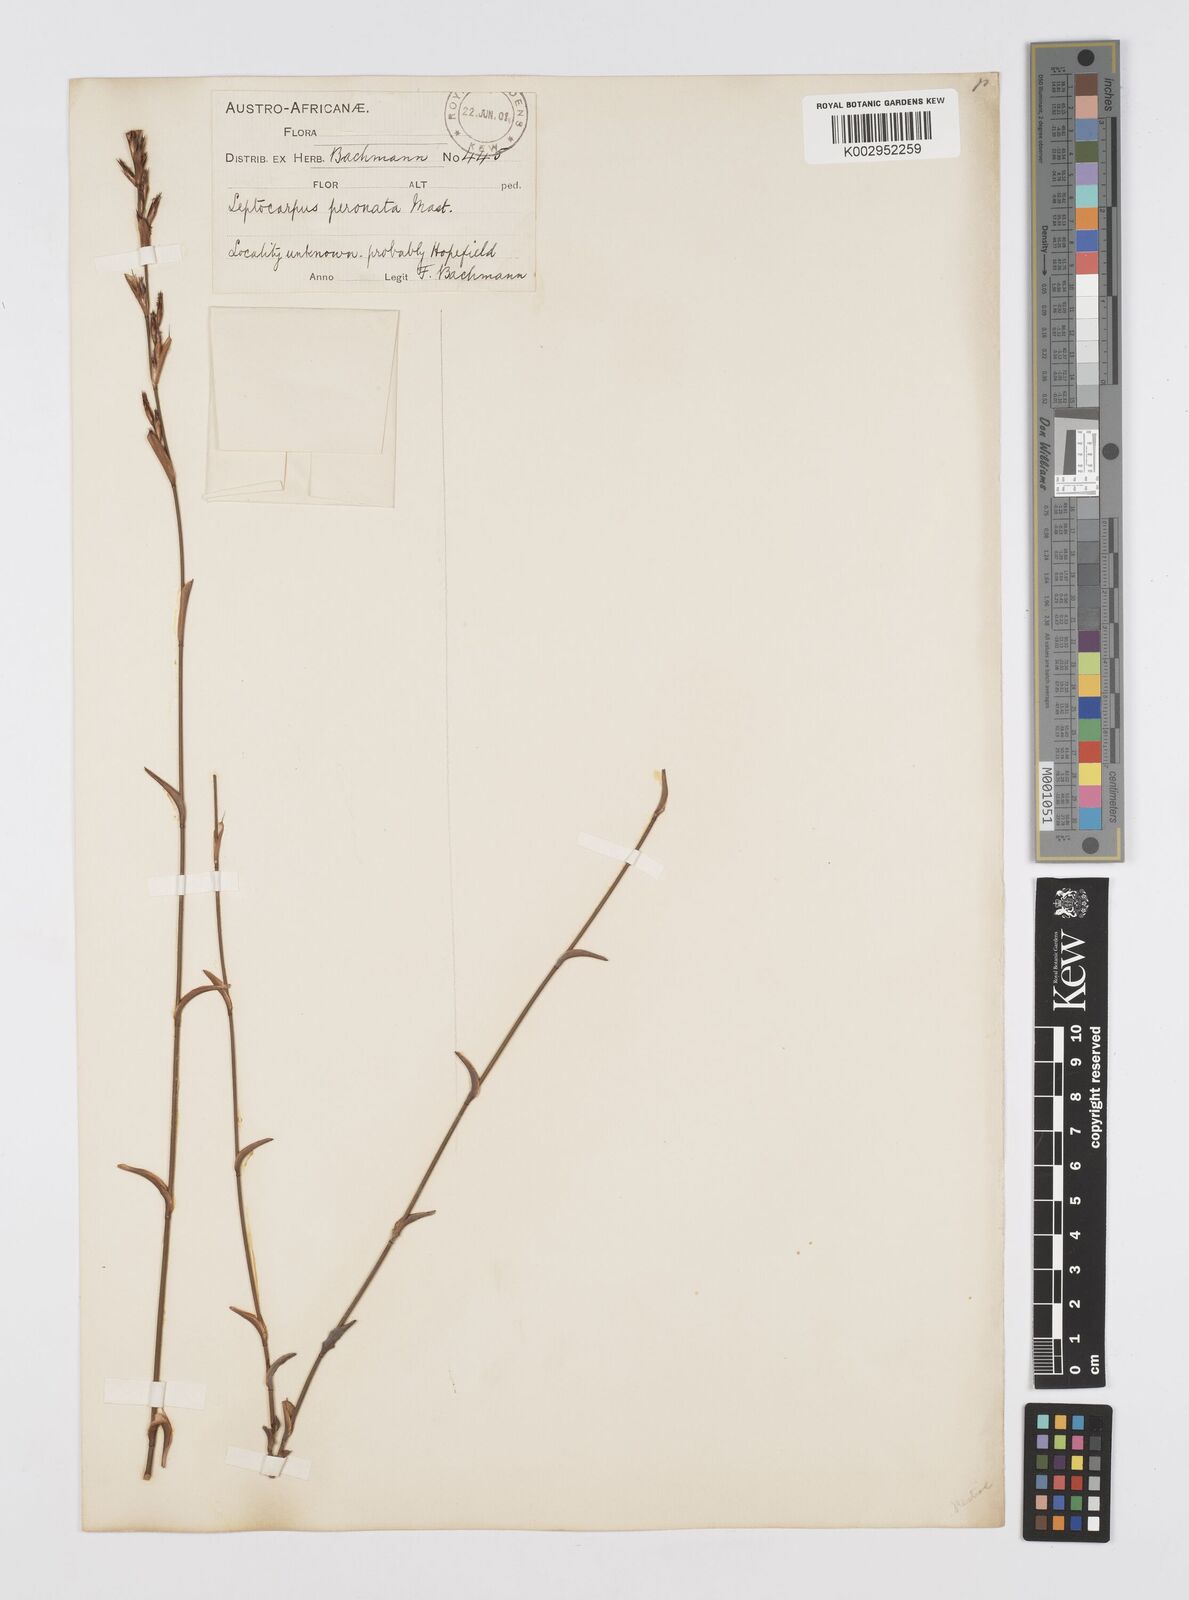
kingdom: Plantae
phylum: Tracheophyta
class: Liliopsida
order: Poales
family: Restionaceae
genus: Restio
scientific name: Restio vimineus
